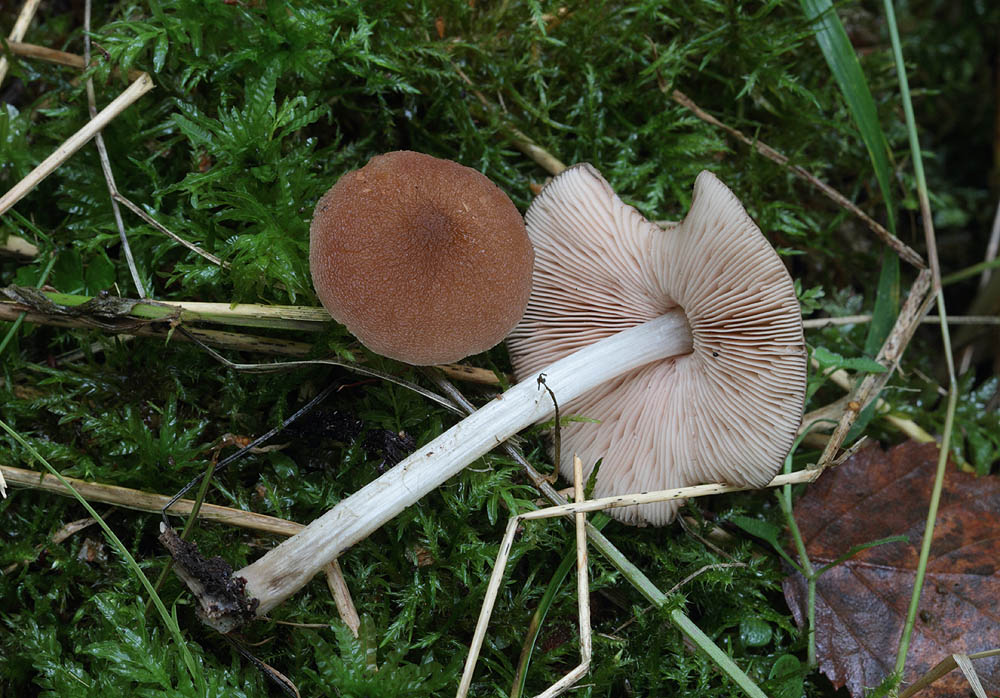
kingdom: Fungi
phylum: Basidiomycota
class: Agaricomycetes
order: Agaricales
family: Pluteaceae
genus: Pluteus
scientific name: Pluteus phlebophorus
